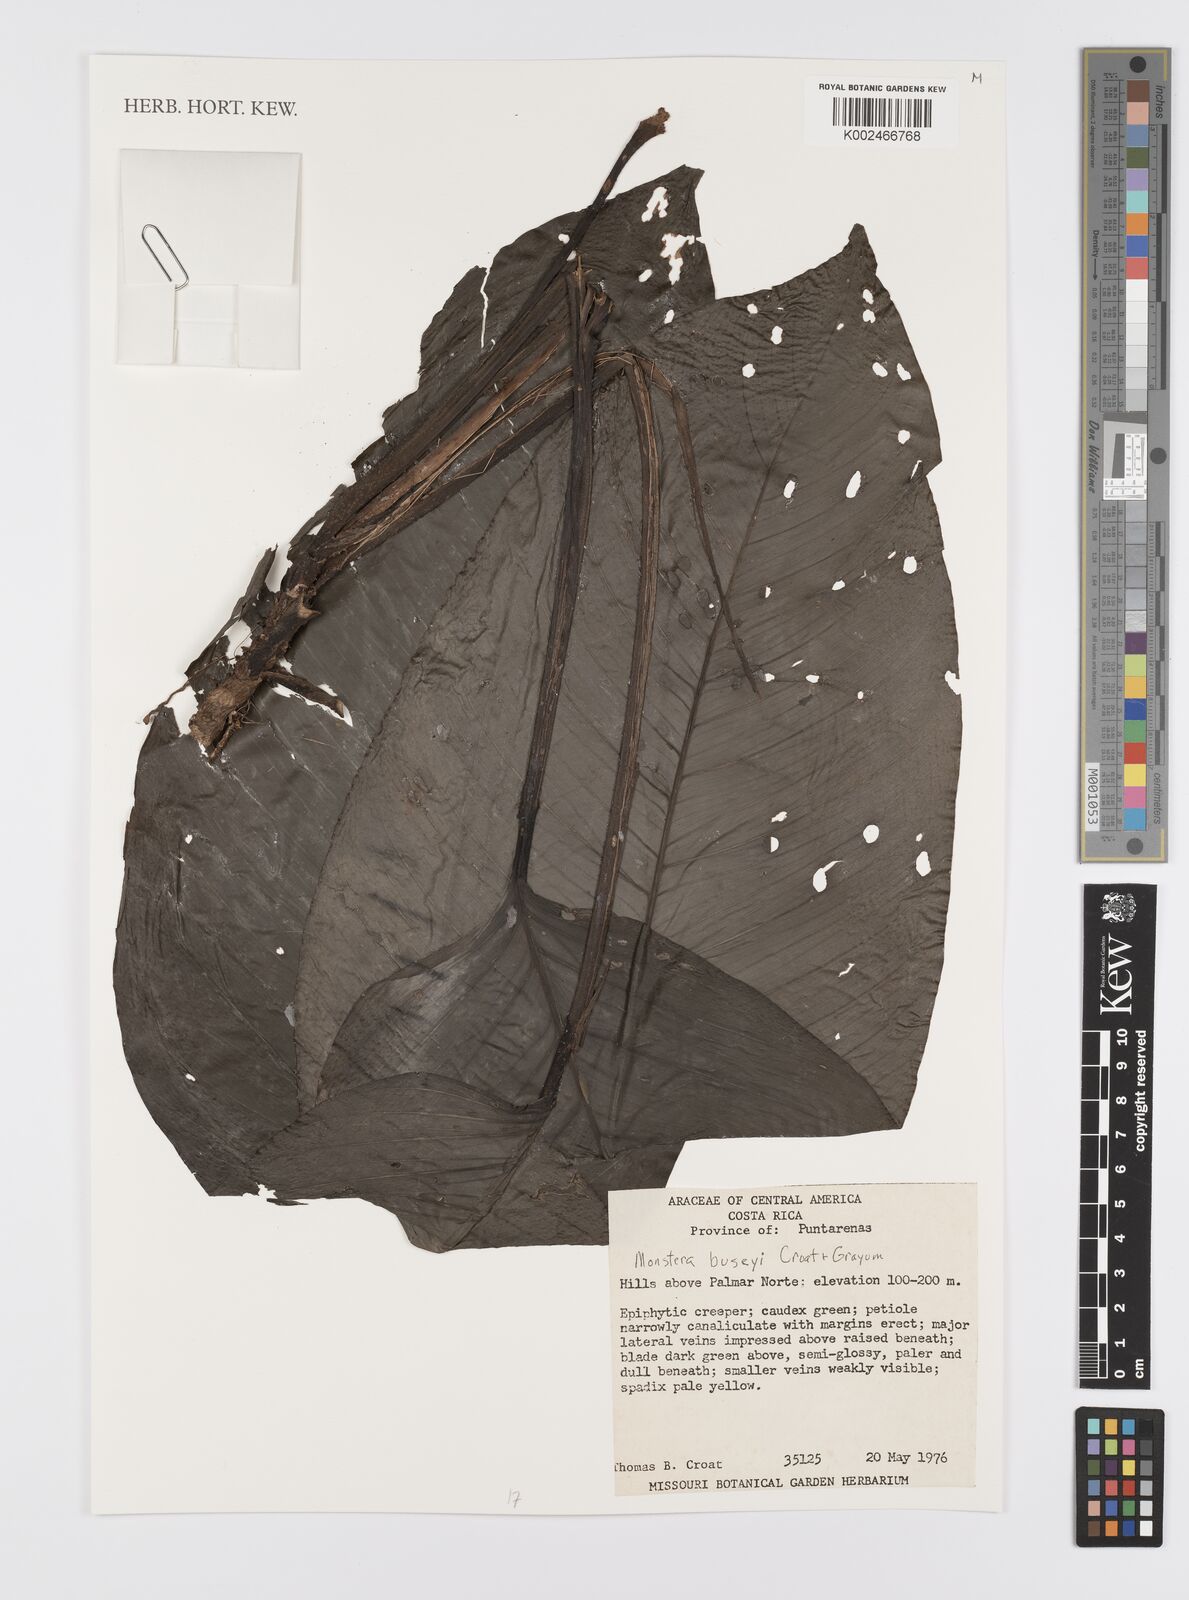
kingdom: Plantae
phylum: Tracheophyta
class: Liliopsida
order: Alismatales
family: Araceae
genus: Monstera
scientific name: Monstera buseyi
